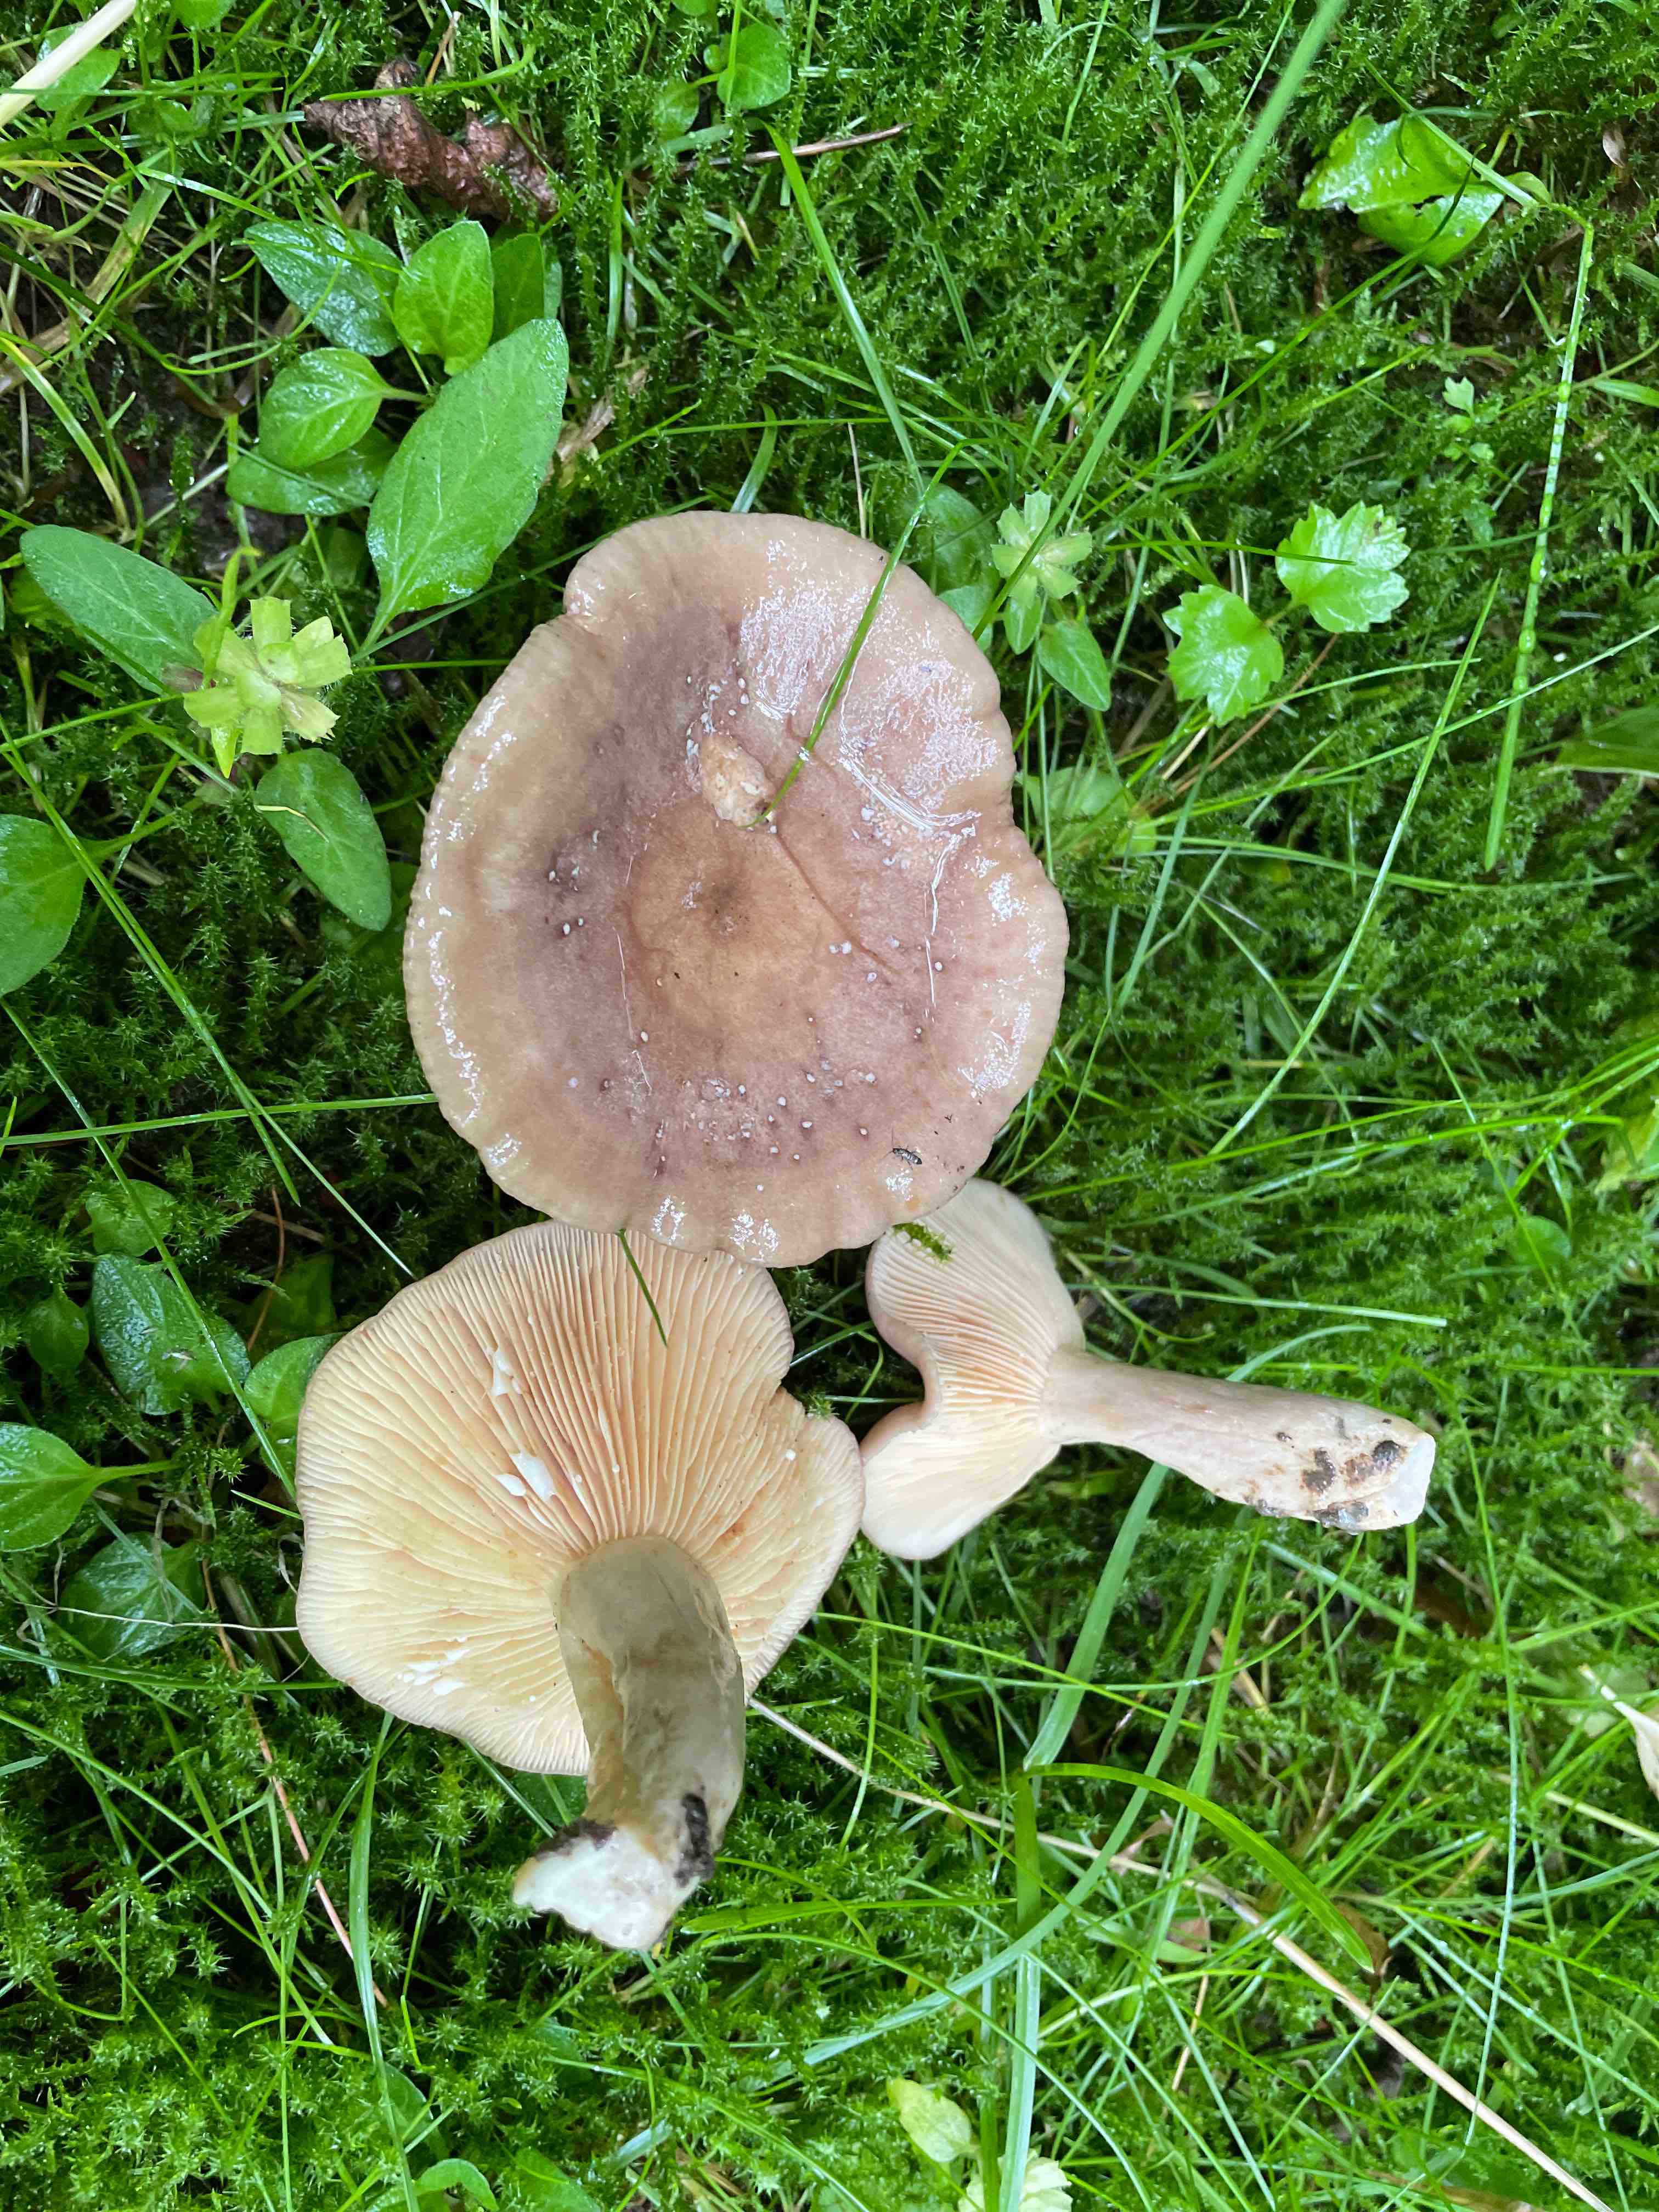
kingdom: Fungi
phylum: Basidiomycota
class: Agaricomycetes
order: Russulales
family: Russulaceae
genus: Lactarius
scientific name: Lactarius pyrogalus
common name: hassel-mælkehat
